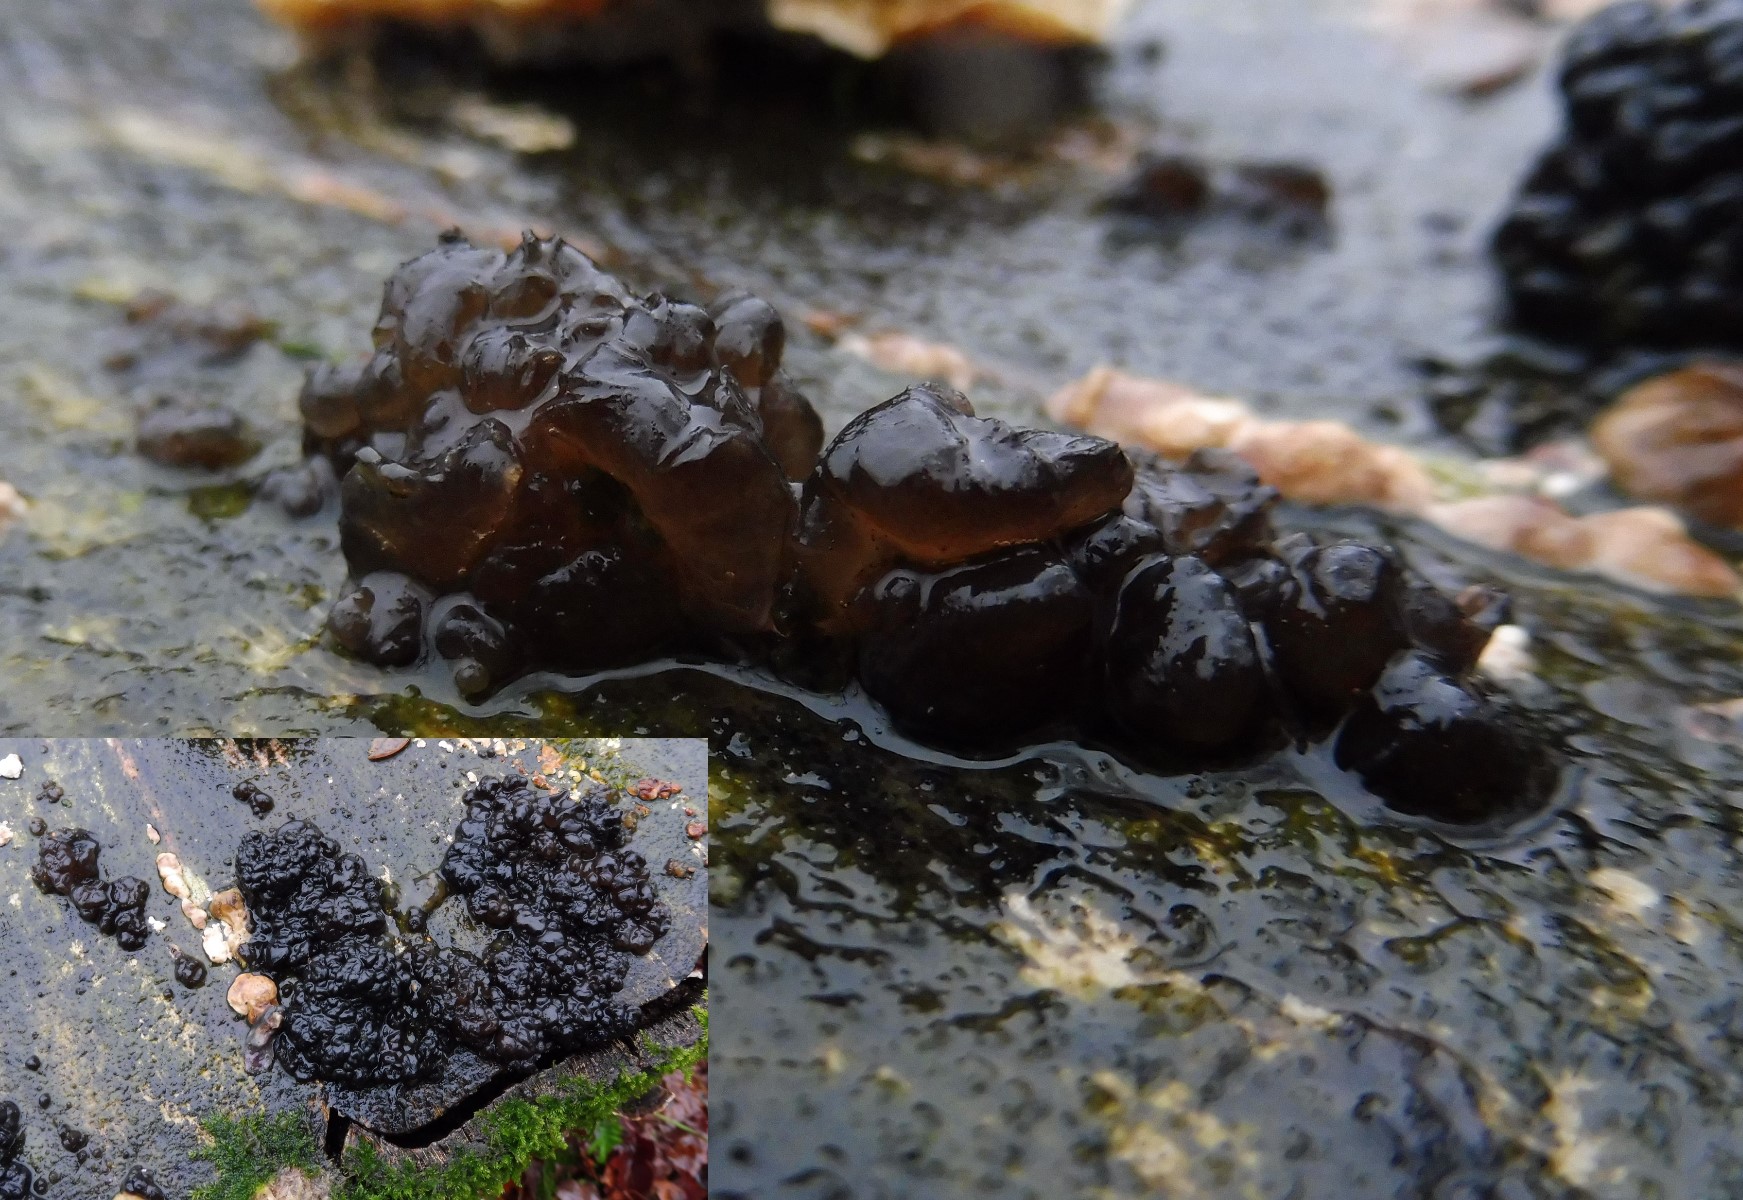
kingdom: Fungi
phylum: Basidiomycota
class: Agaricomycetes
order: Auriculariales
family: Auriculariaceae
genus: Exidia
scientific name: Exidia nigricans
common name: almindelig bævretop
